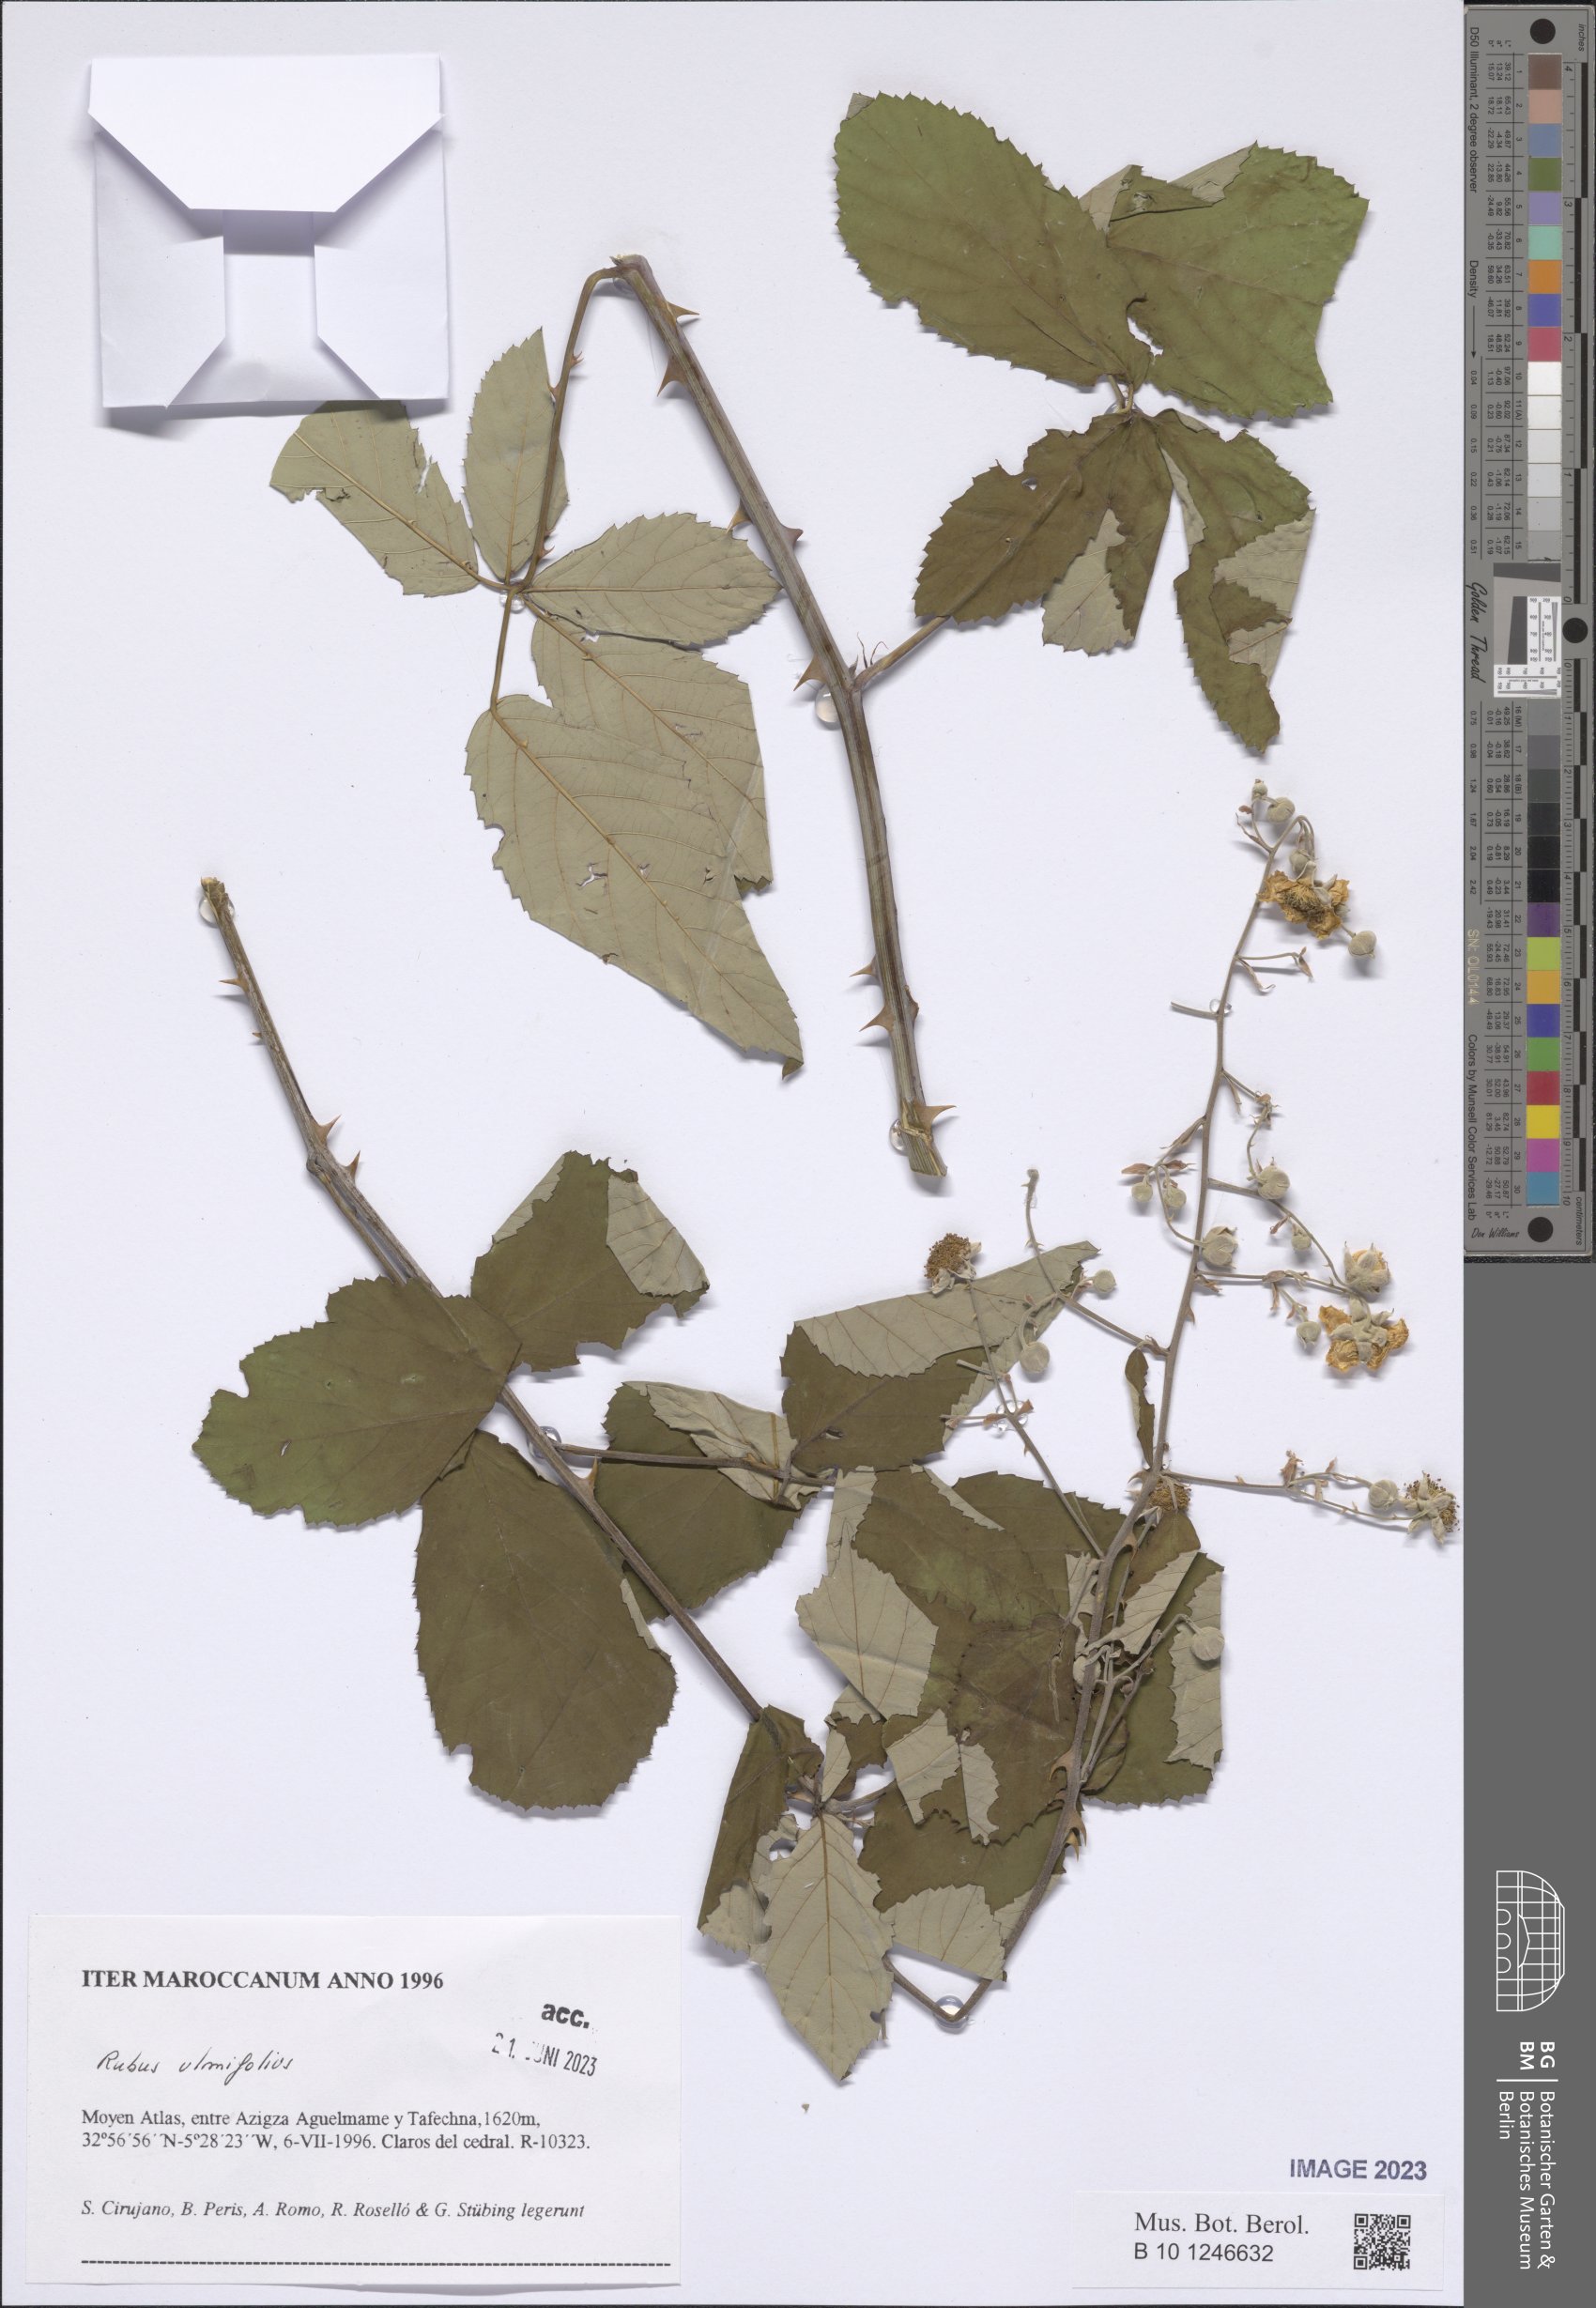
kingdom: Plantae
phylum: Tracheophyta
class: Magnoliopsida
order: Rosales
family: Rosaceae
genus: Rubus
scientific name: Rubus ulmifolius
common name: Elmleaf blackberry
